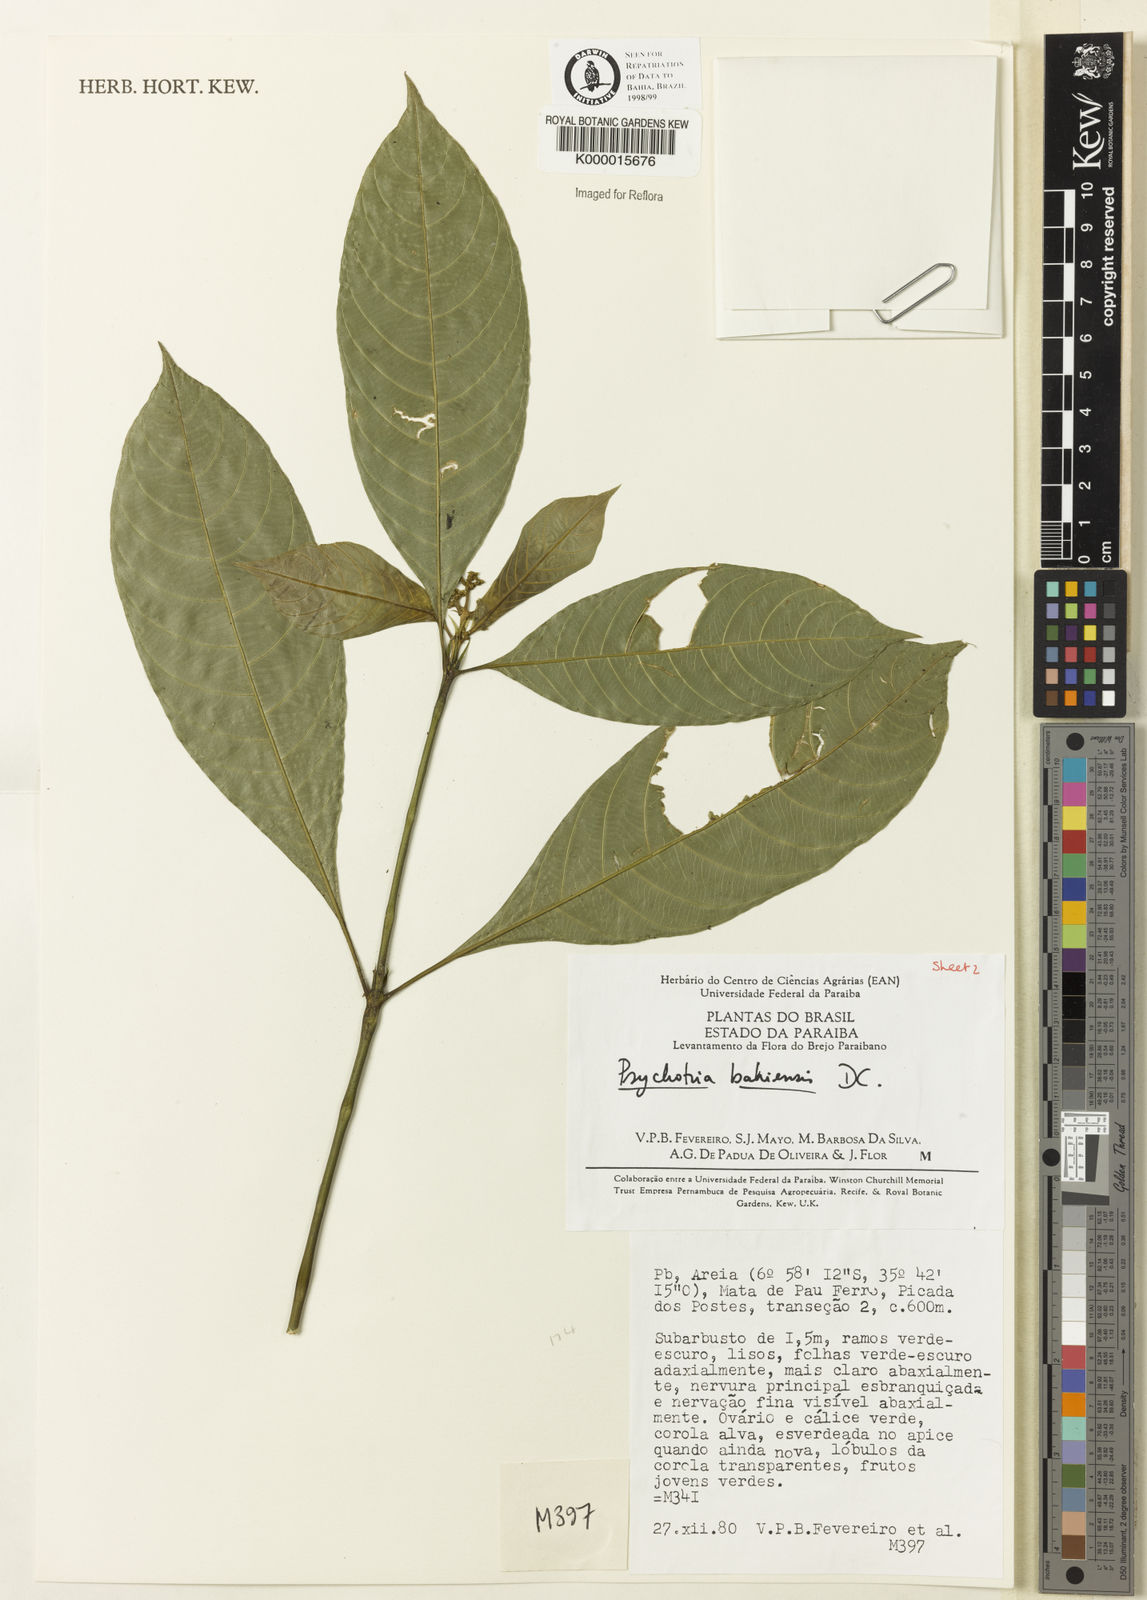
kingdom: Plantae
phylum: Tracheophyta
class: Magnoliopsida
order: Gentianales
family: Rubiaceae
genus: Psychotria
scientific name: Psychotria bahiensis
